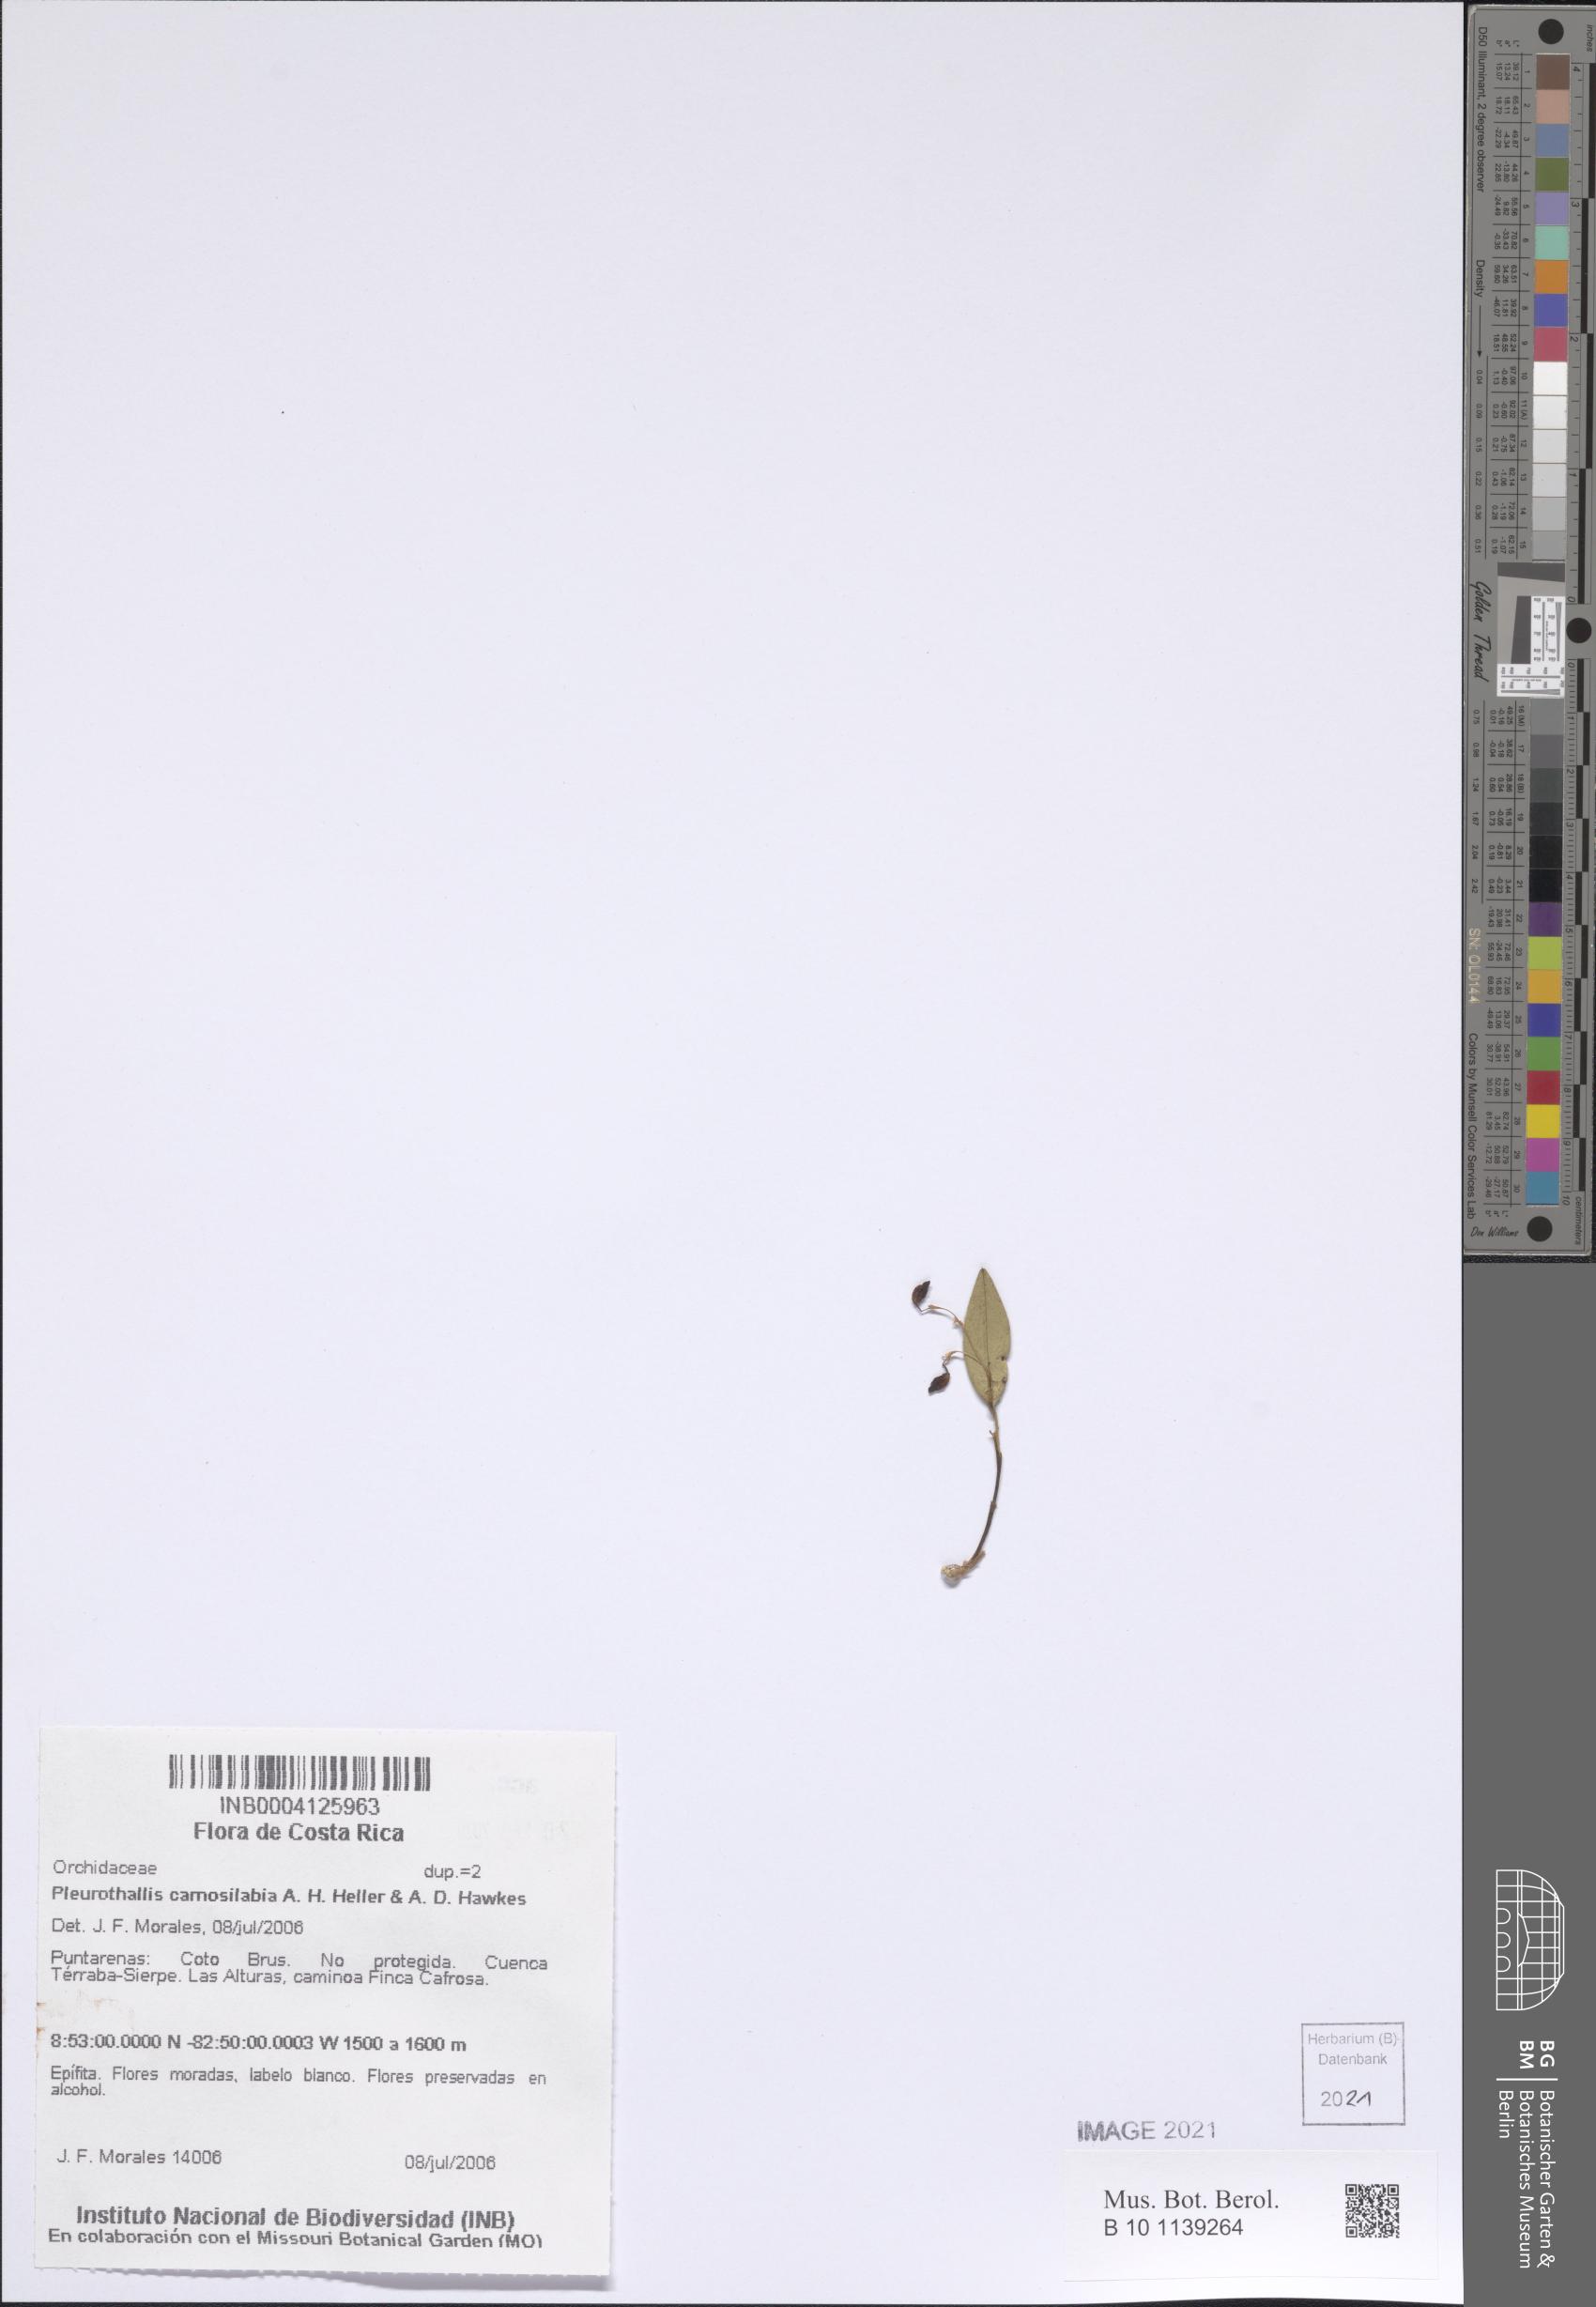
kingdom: Plantae
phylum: Tracheophyta
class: Liliopsida
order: Asparagales
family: Orchidaceae
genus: Stelis
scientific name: Stelis carnosilabia
